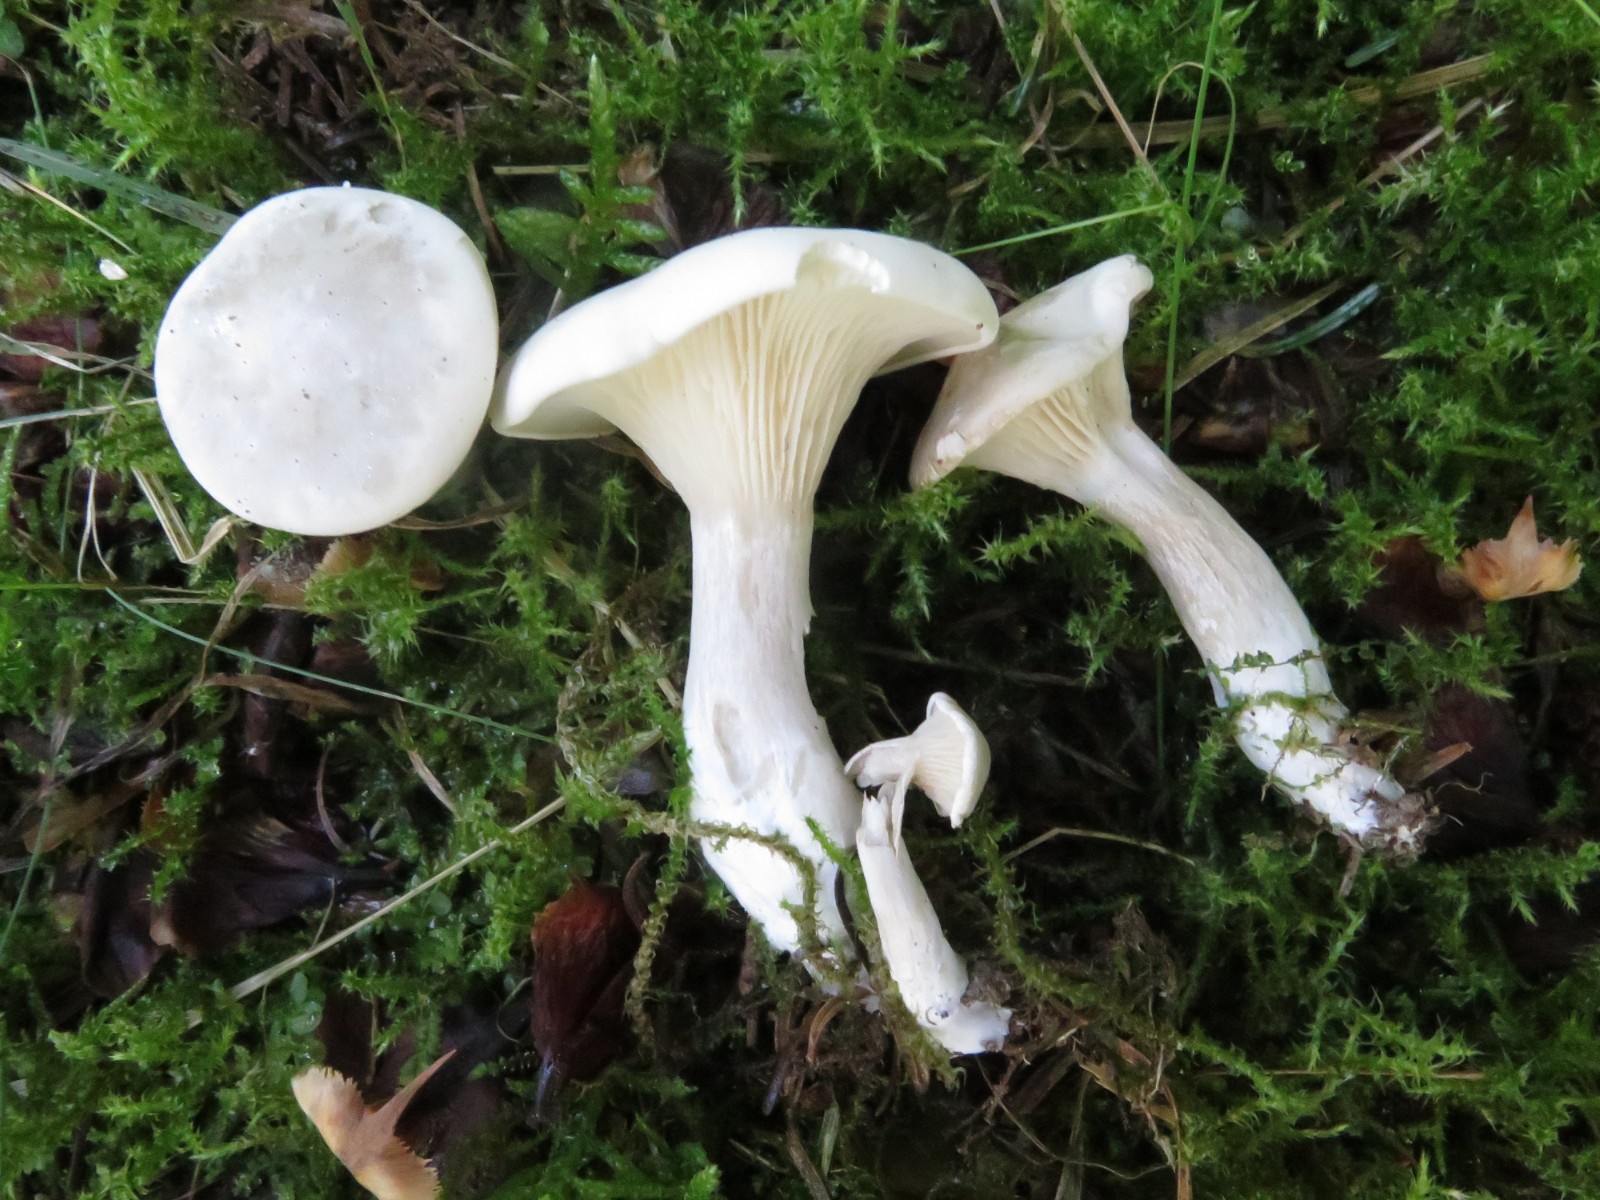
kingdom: Fungi
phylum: Basidiomycota
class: Agaricomycetes
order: Agaricales
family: Tricholomataceae
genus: Infundibulicybe
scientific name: Infundibulicybe geotropa
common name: stor tragthat
